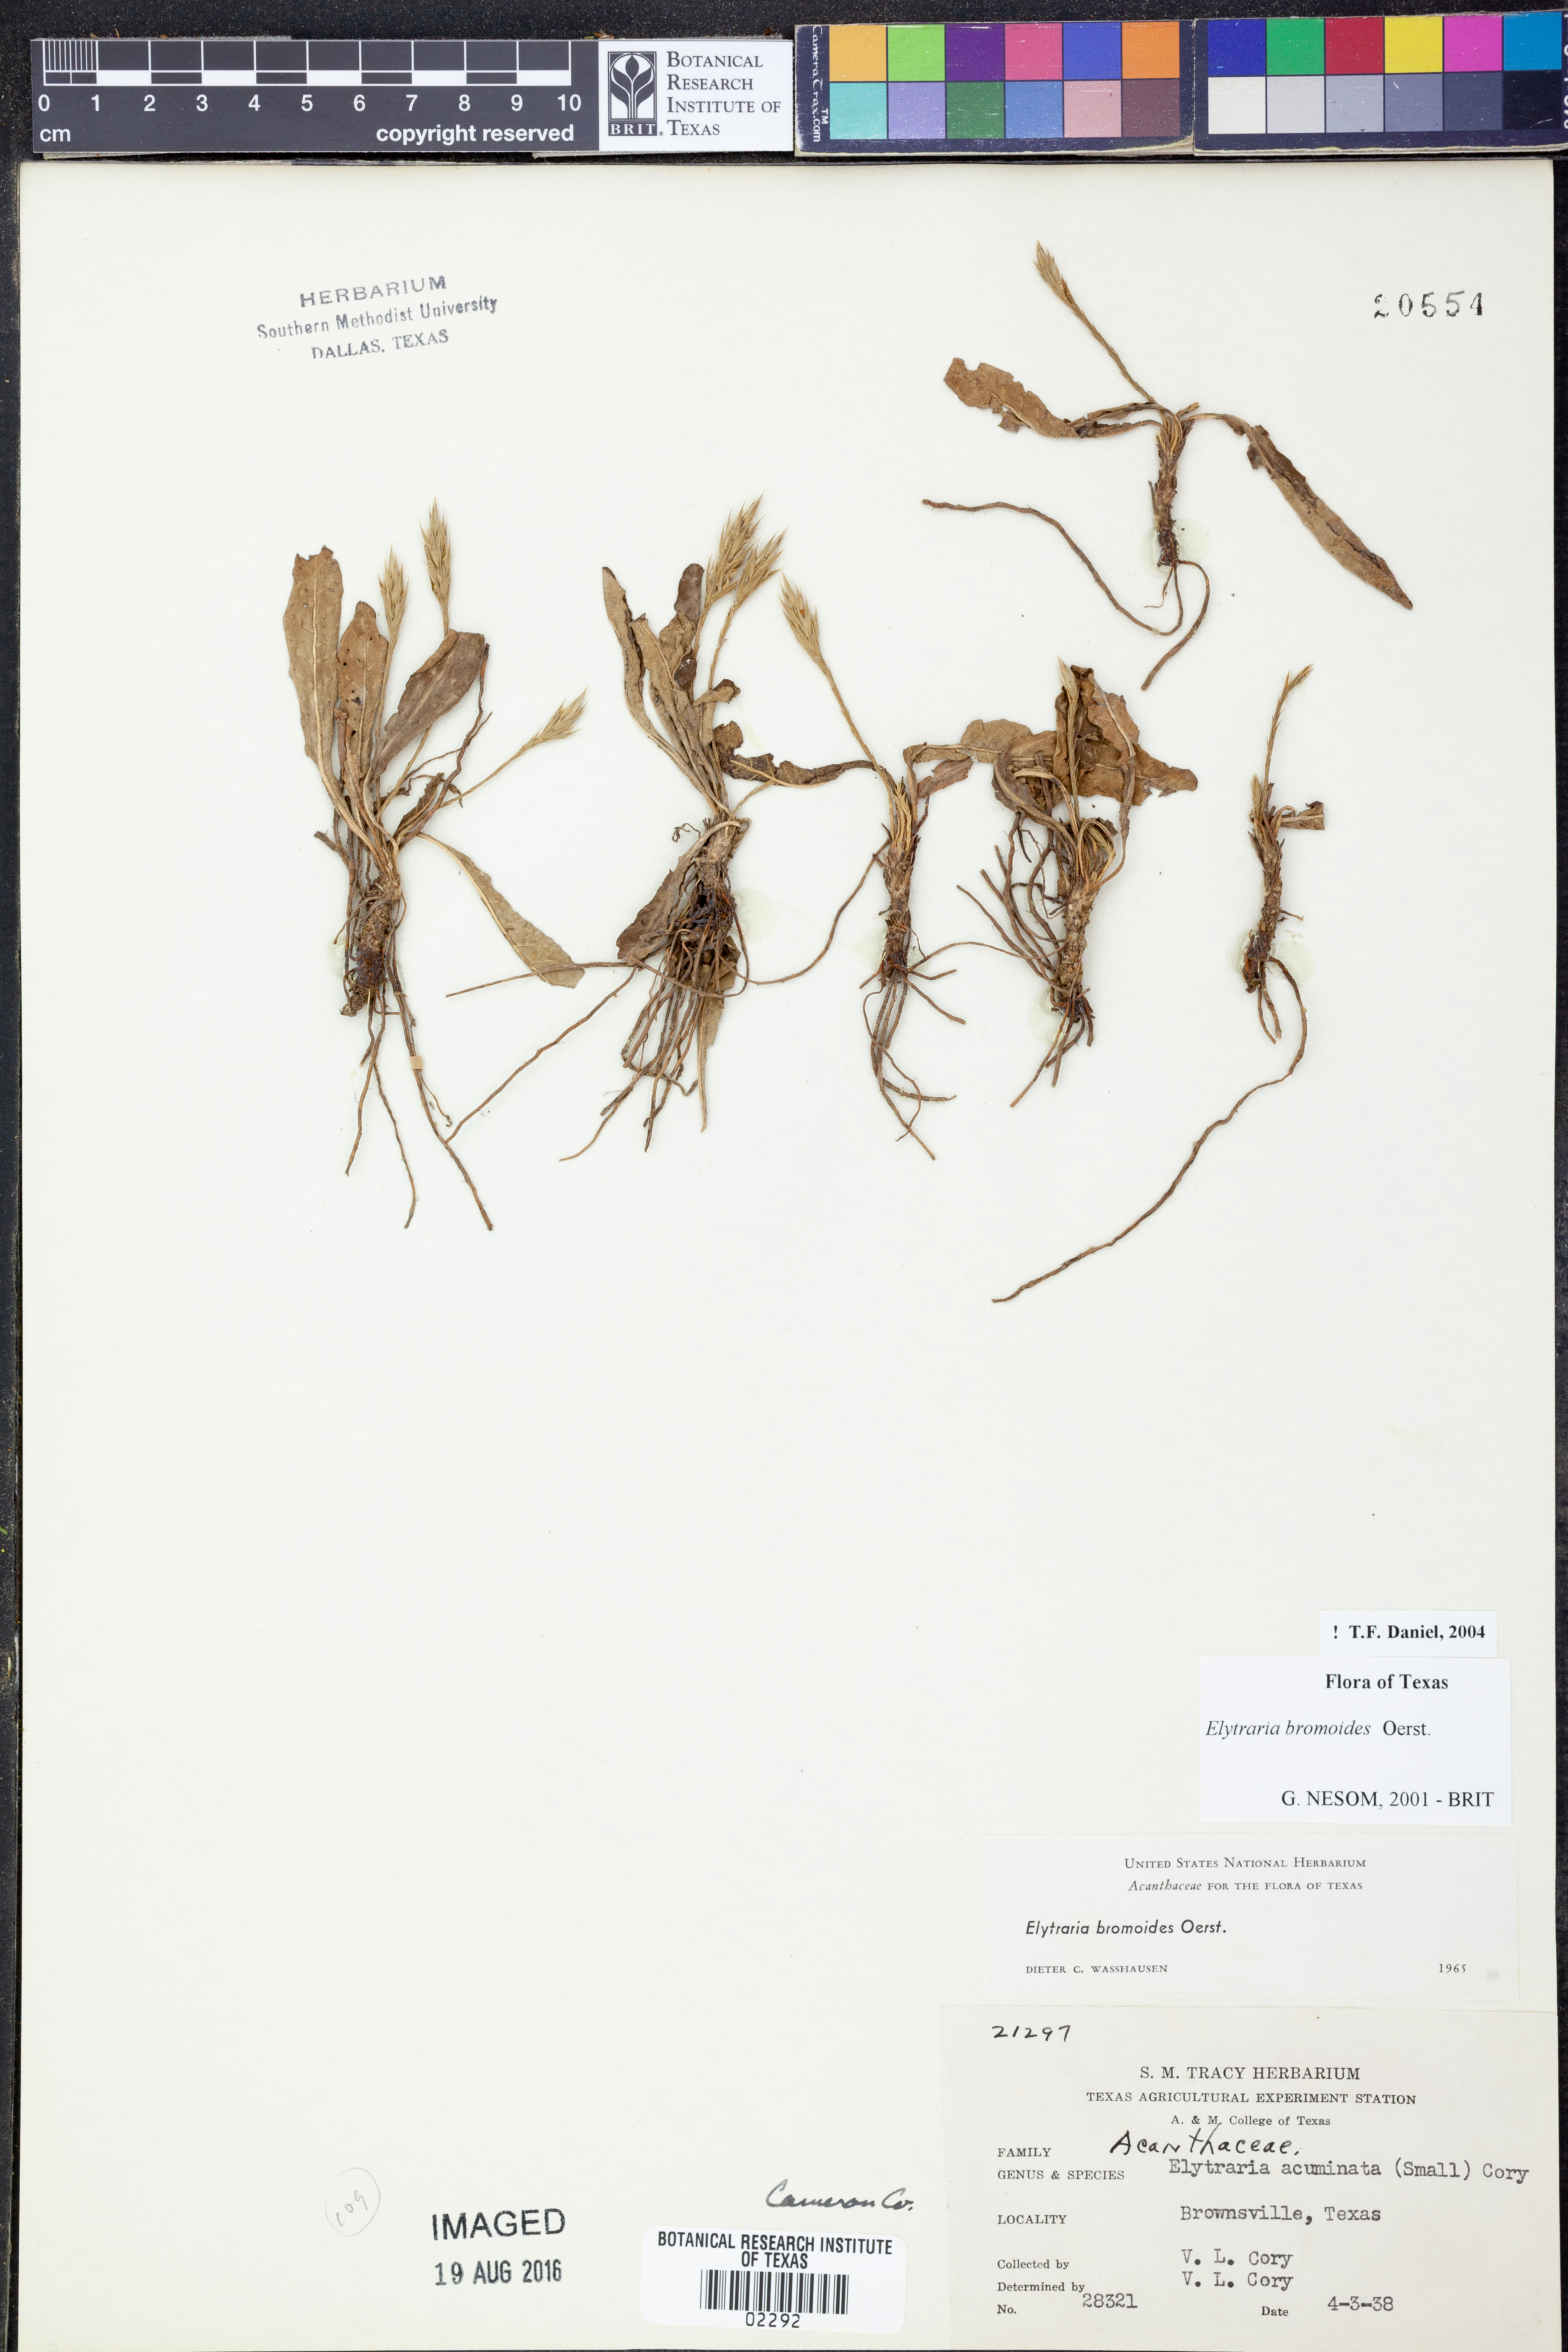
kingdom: Plantae
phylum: Tracheophyta
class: Magnoliopsida
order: Lamiales
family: Acanthaceae
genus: Elytraria
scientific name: Elytraria bromoides
